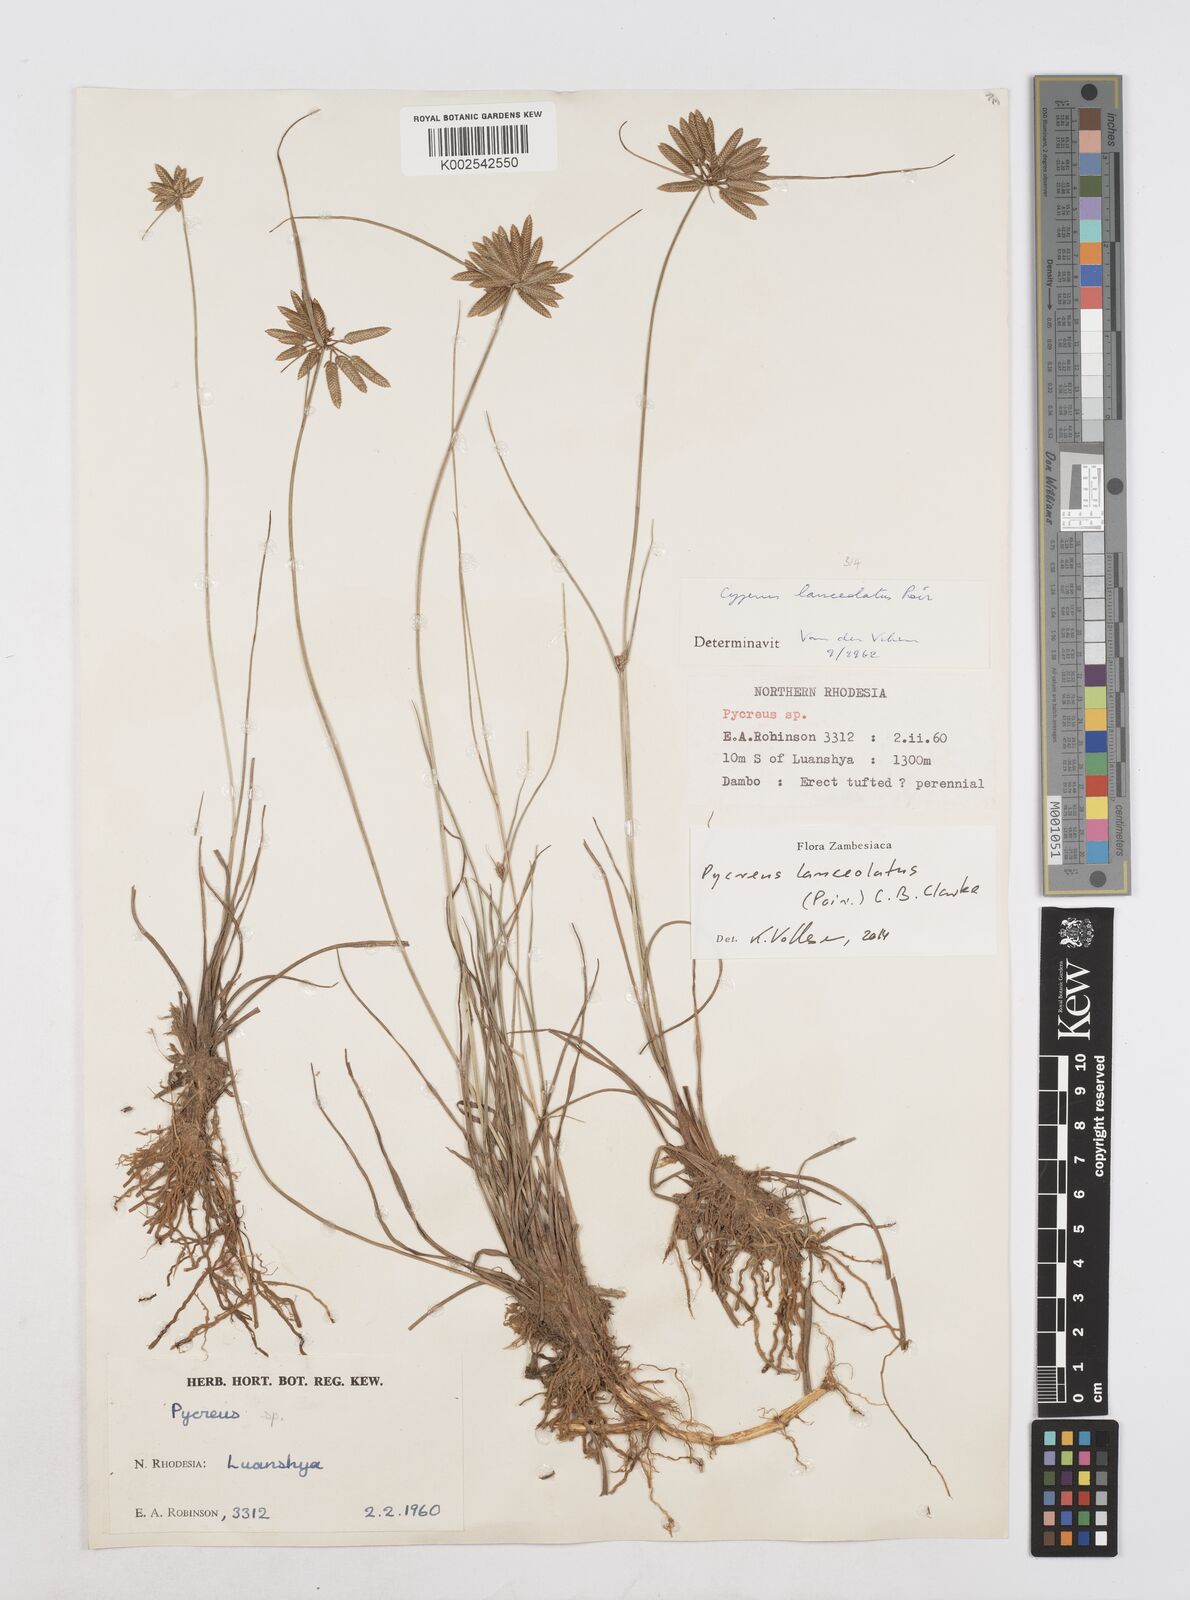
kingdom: Plantae
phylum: Tracheophyta
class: Liliopsida
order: Poales
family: Cyperaceae
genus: Cyperus
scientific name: Cyperus
